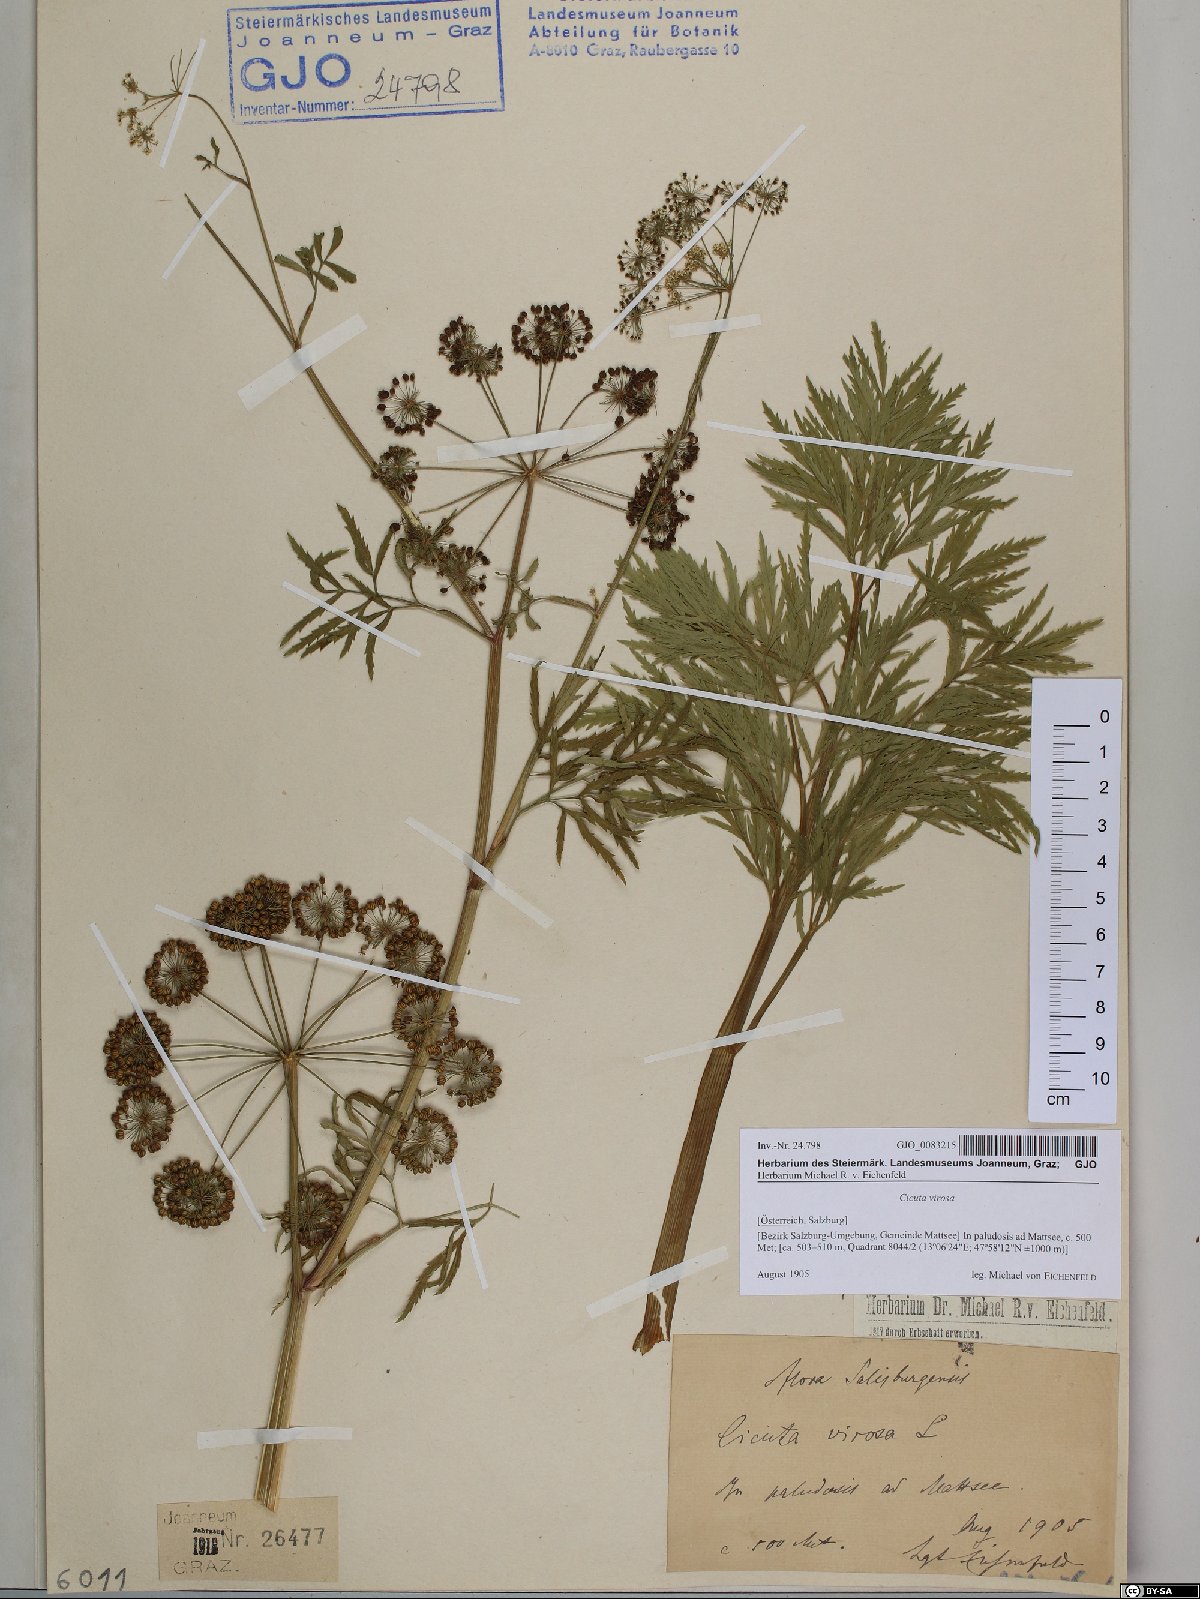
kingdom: Plantae
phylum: Tracheophyta
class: Magnoliopsida
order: Apiales
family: Apiaceae
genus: Cicuta
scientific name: Cicuta virosa
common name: Cowbane
